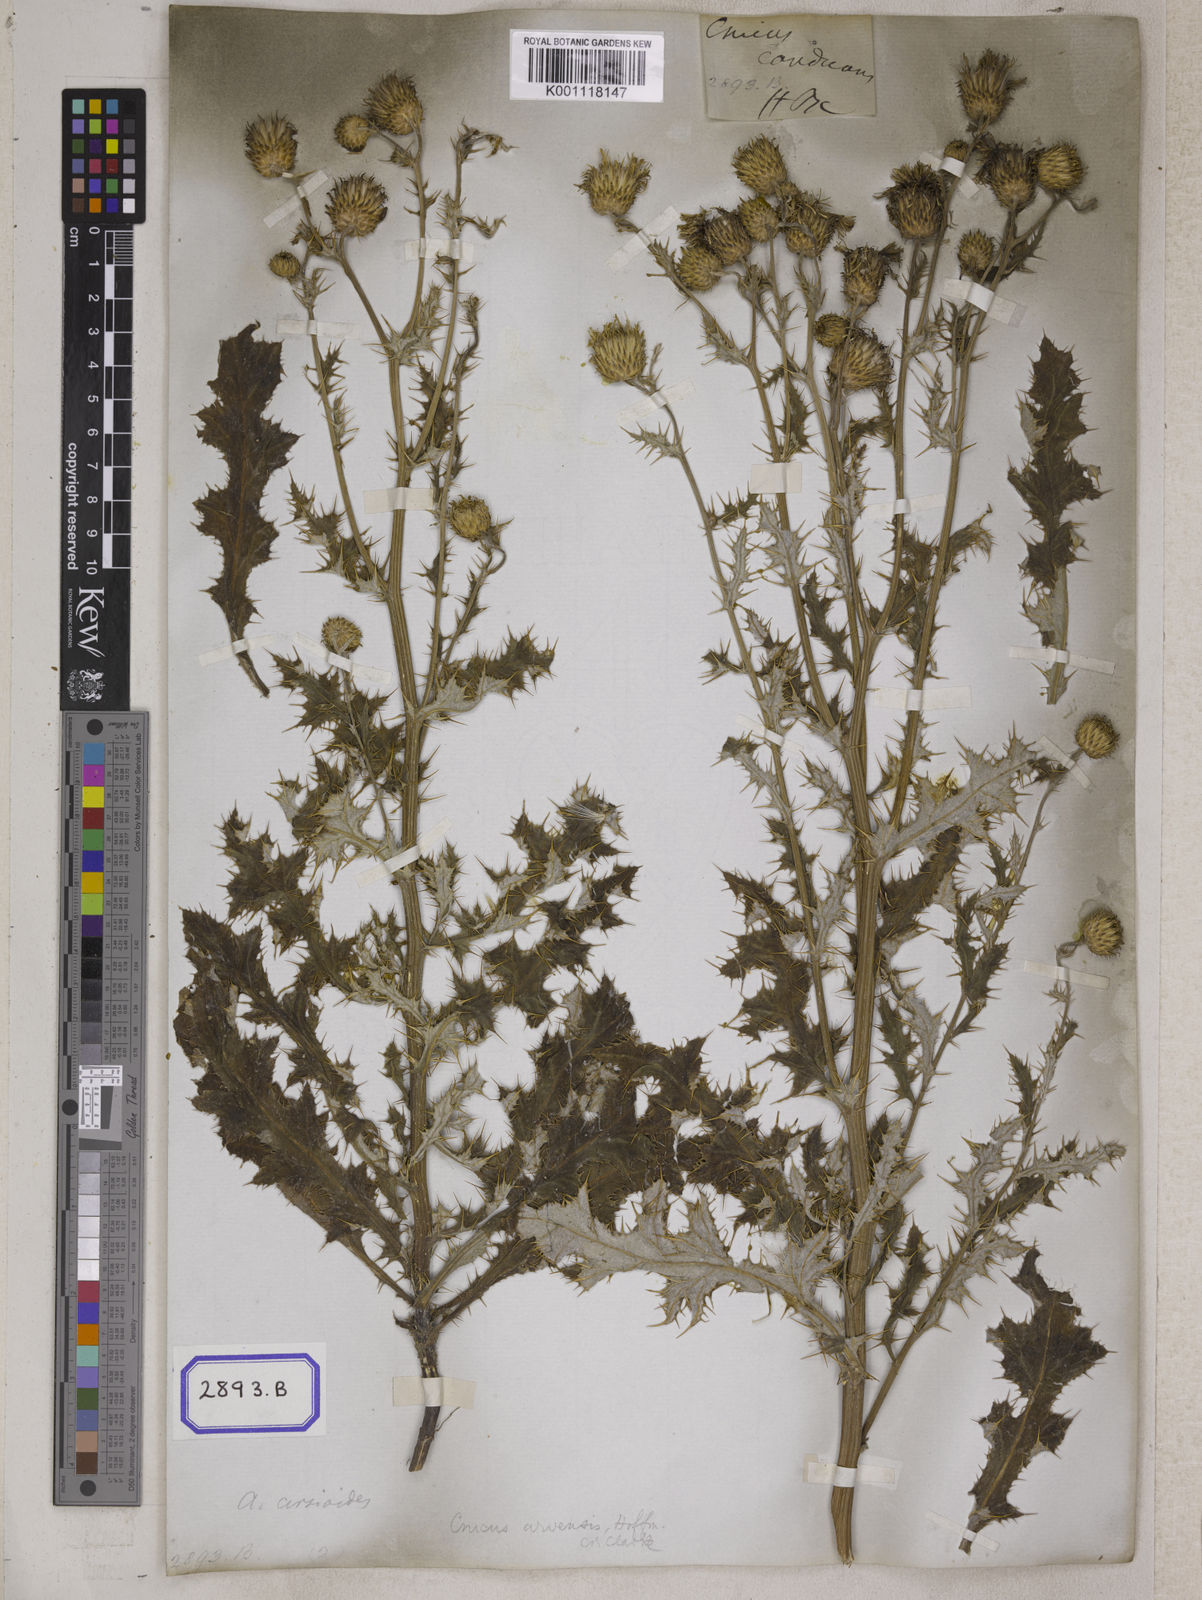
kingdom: Plantae
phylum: Tracheophyta
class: Magnoliopsida
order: Asterales
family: Asteraceae
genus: Jurinea
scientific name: Jurinea heteromalla
